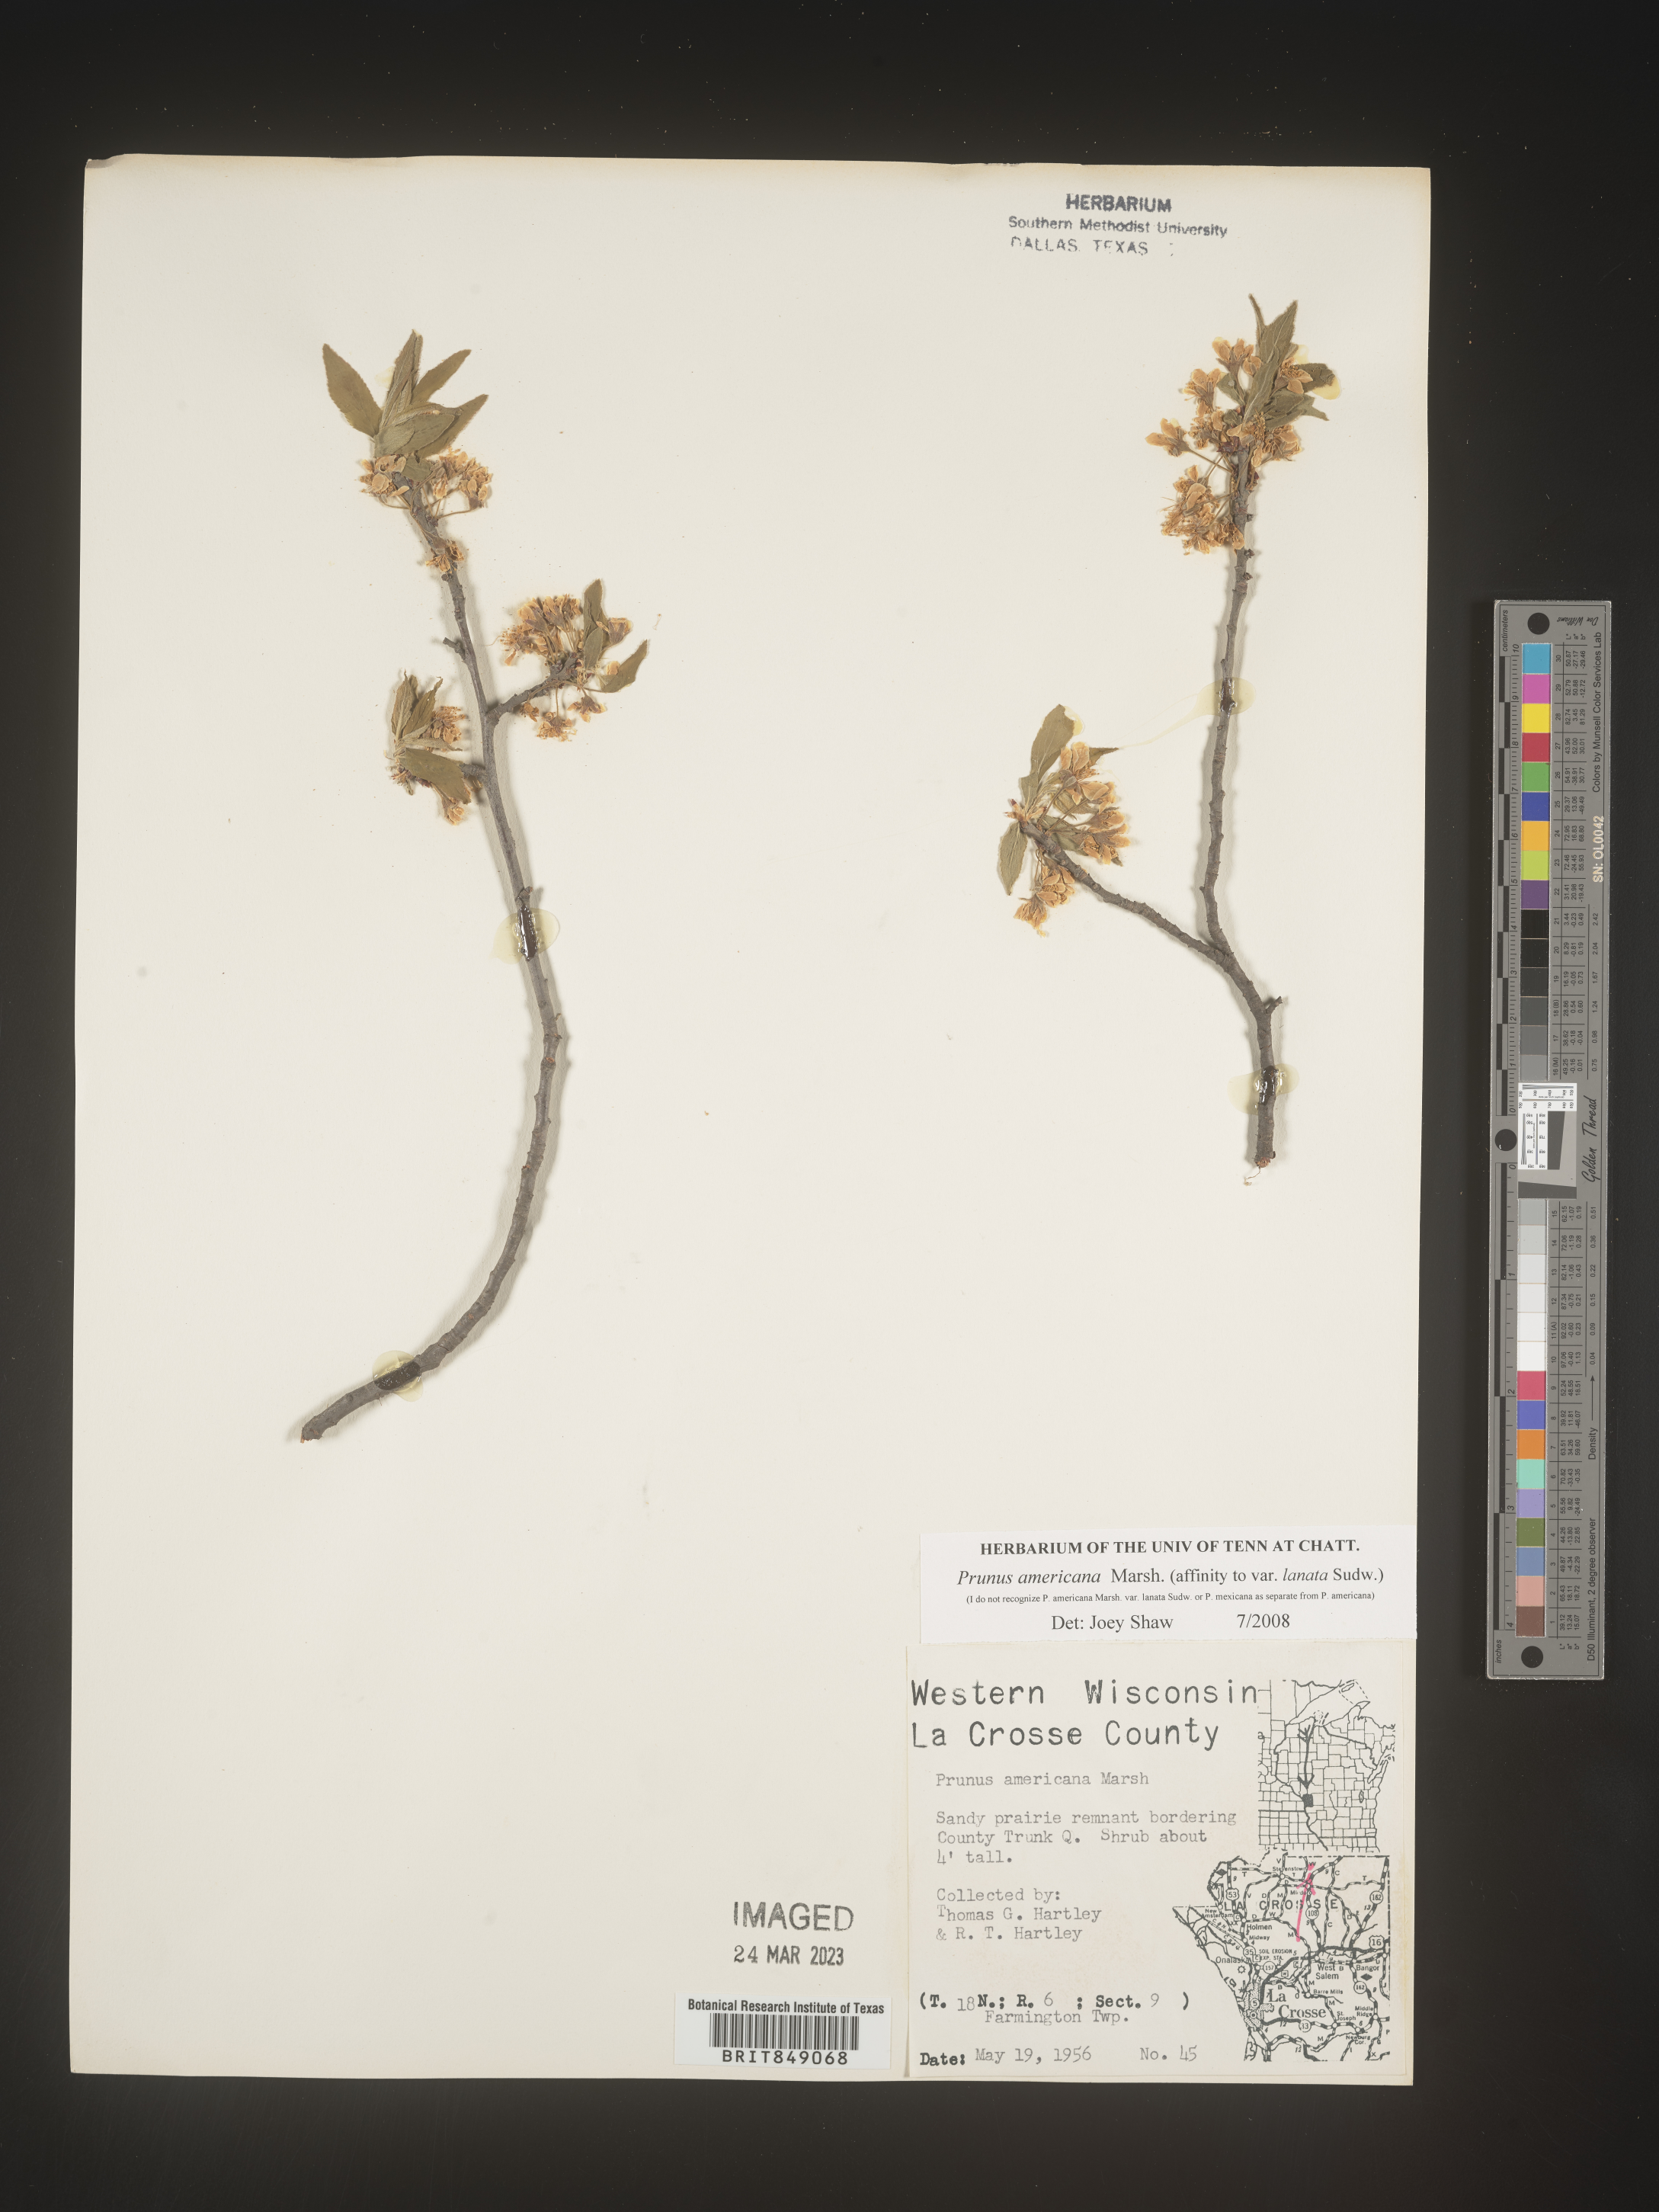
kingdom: Plantae
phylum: Tracheophyta
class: Magnoliopsida
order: Rosales
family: Rosaceae
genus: Prunus
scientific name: Prunus americana
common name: American plum
